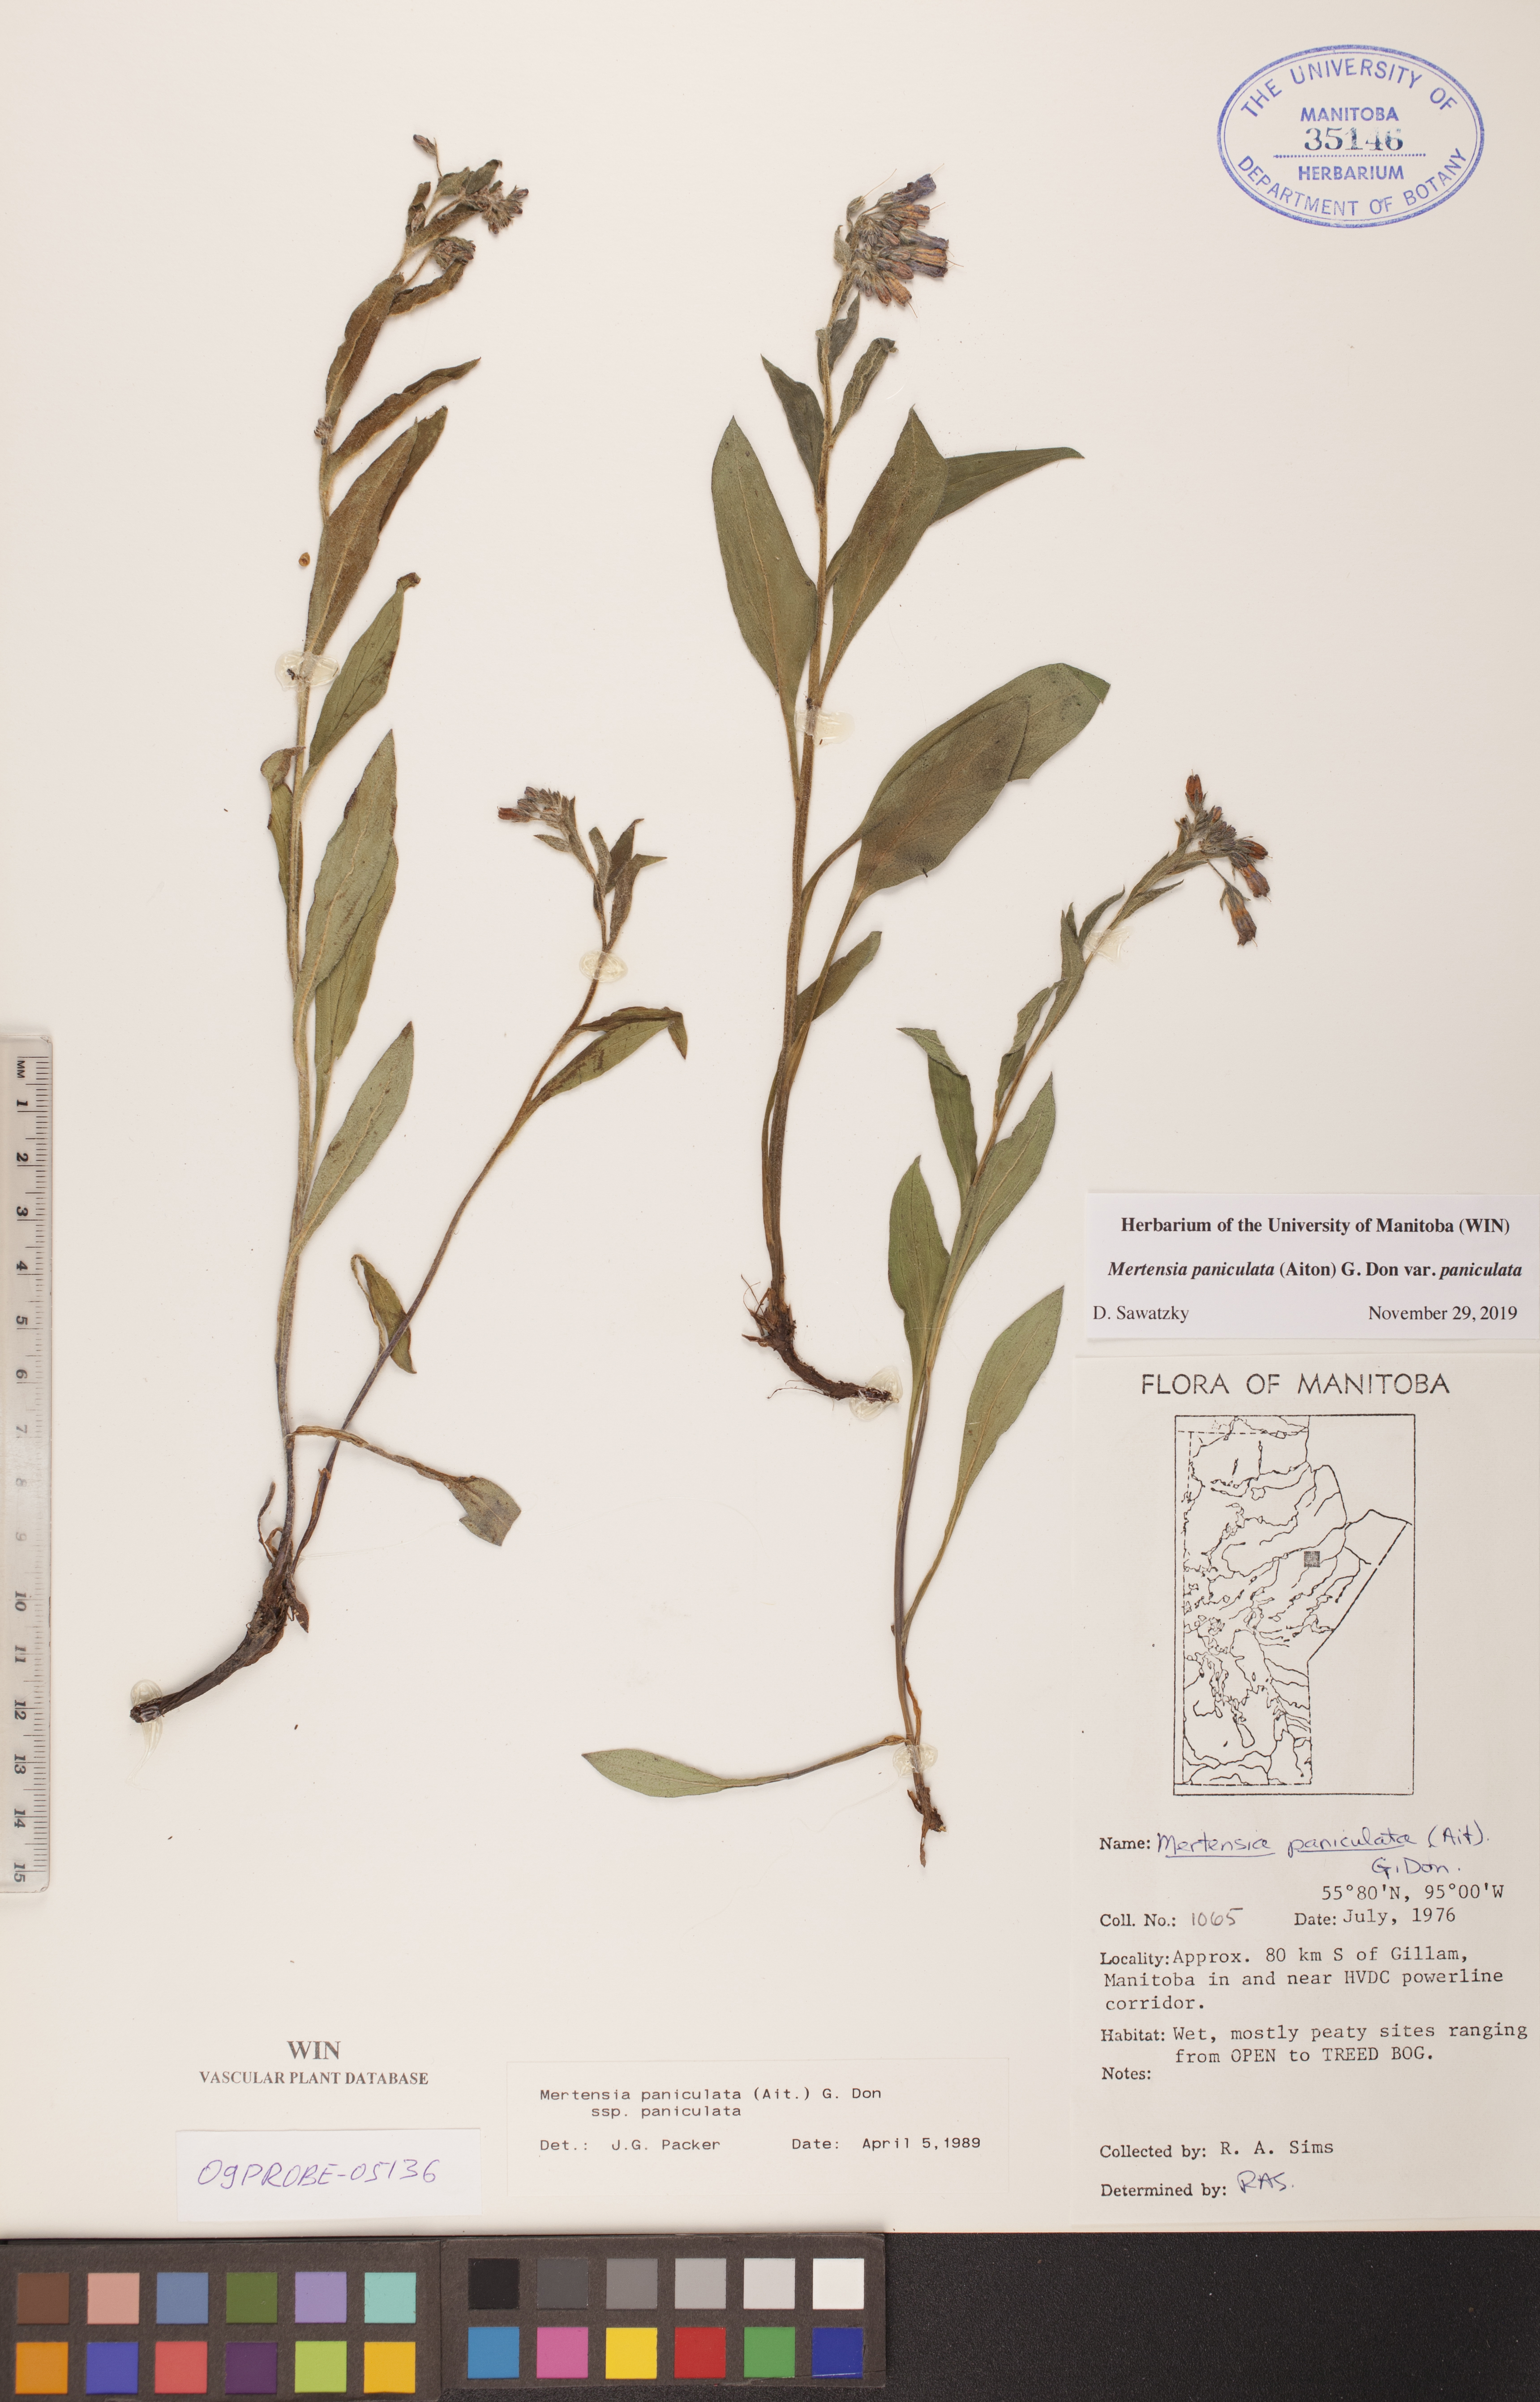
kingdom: Plantae
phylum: Tracheophyta
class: Magnoliopsida
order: Boraginales
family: Boraginaceae
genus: Mertensia
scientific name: Mertensia paniculata
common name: Panicled bluebells
